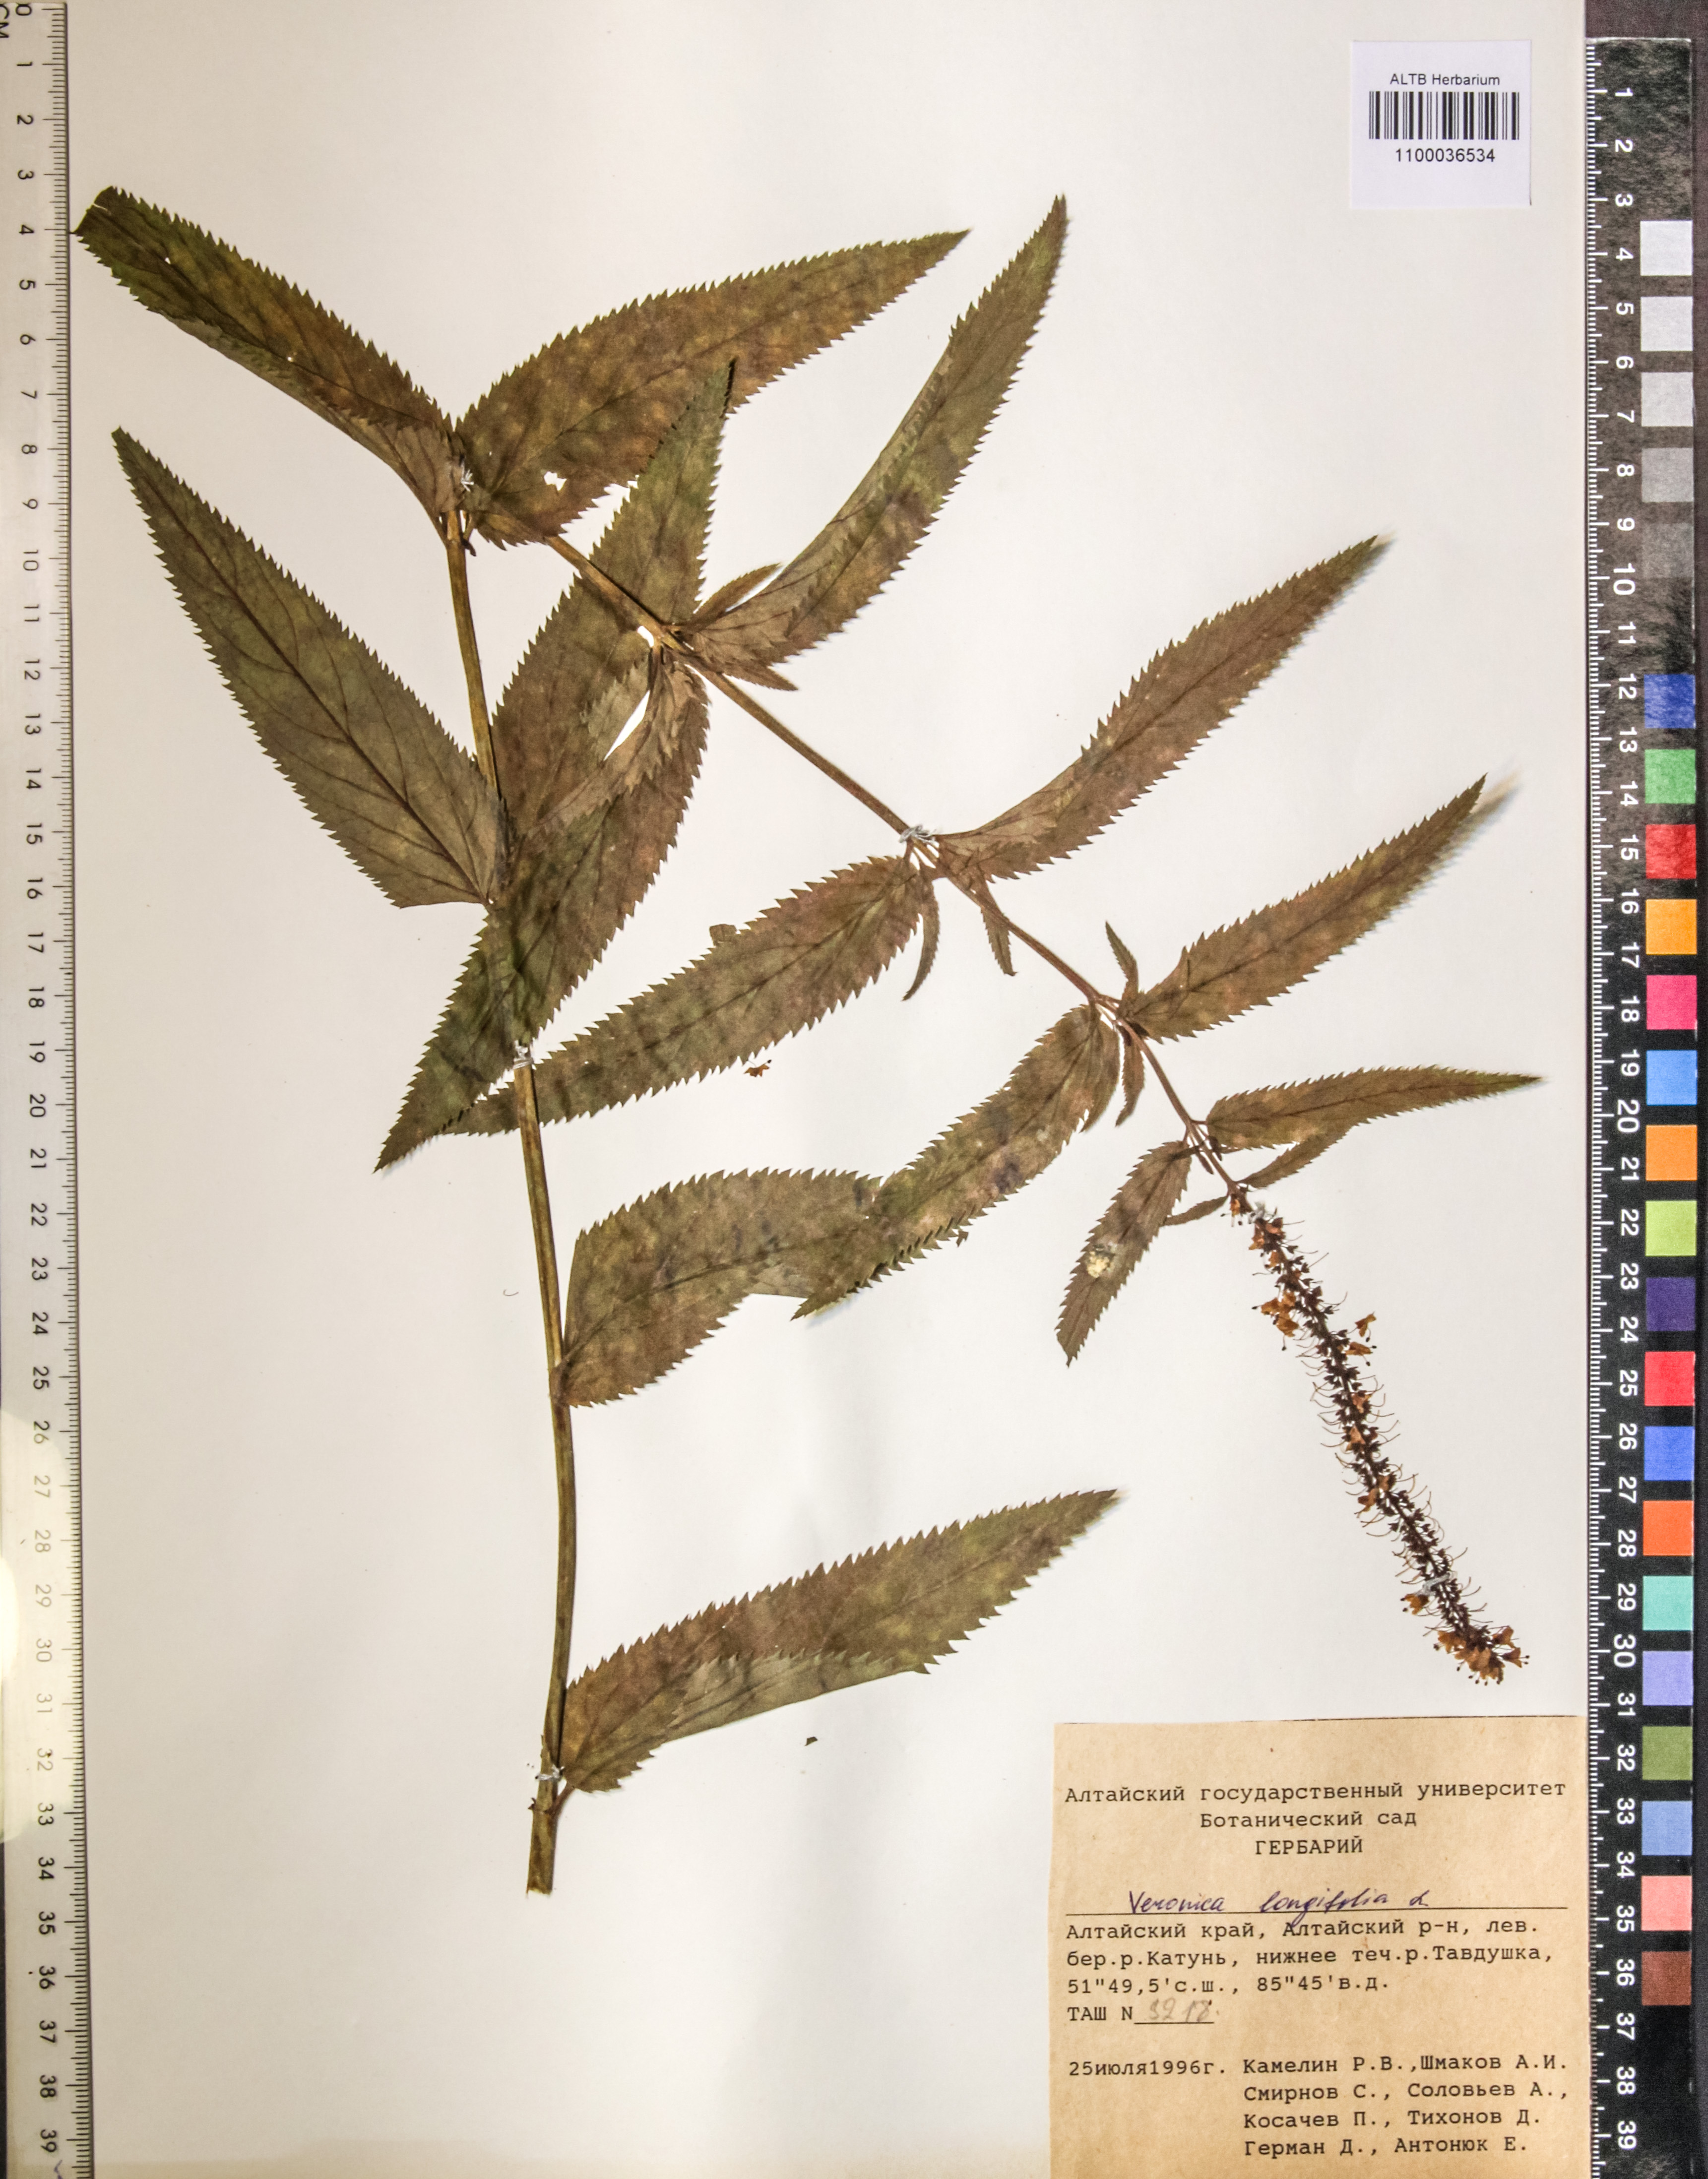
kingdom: Plantae
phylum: Tracheophyta
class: Magnoliopsida
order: Lamiales
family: Plantaginaceae
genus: Veronica
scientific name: Veronica longifolia
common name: Garden speedwell
